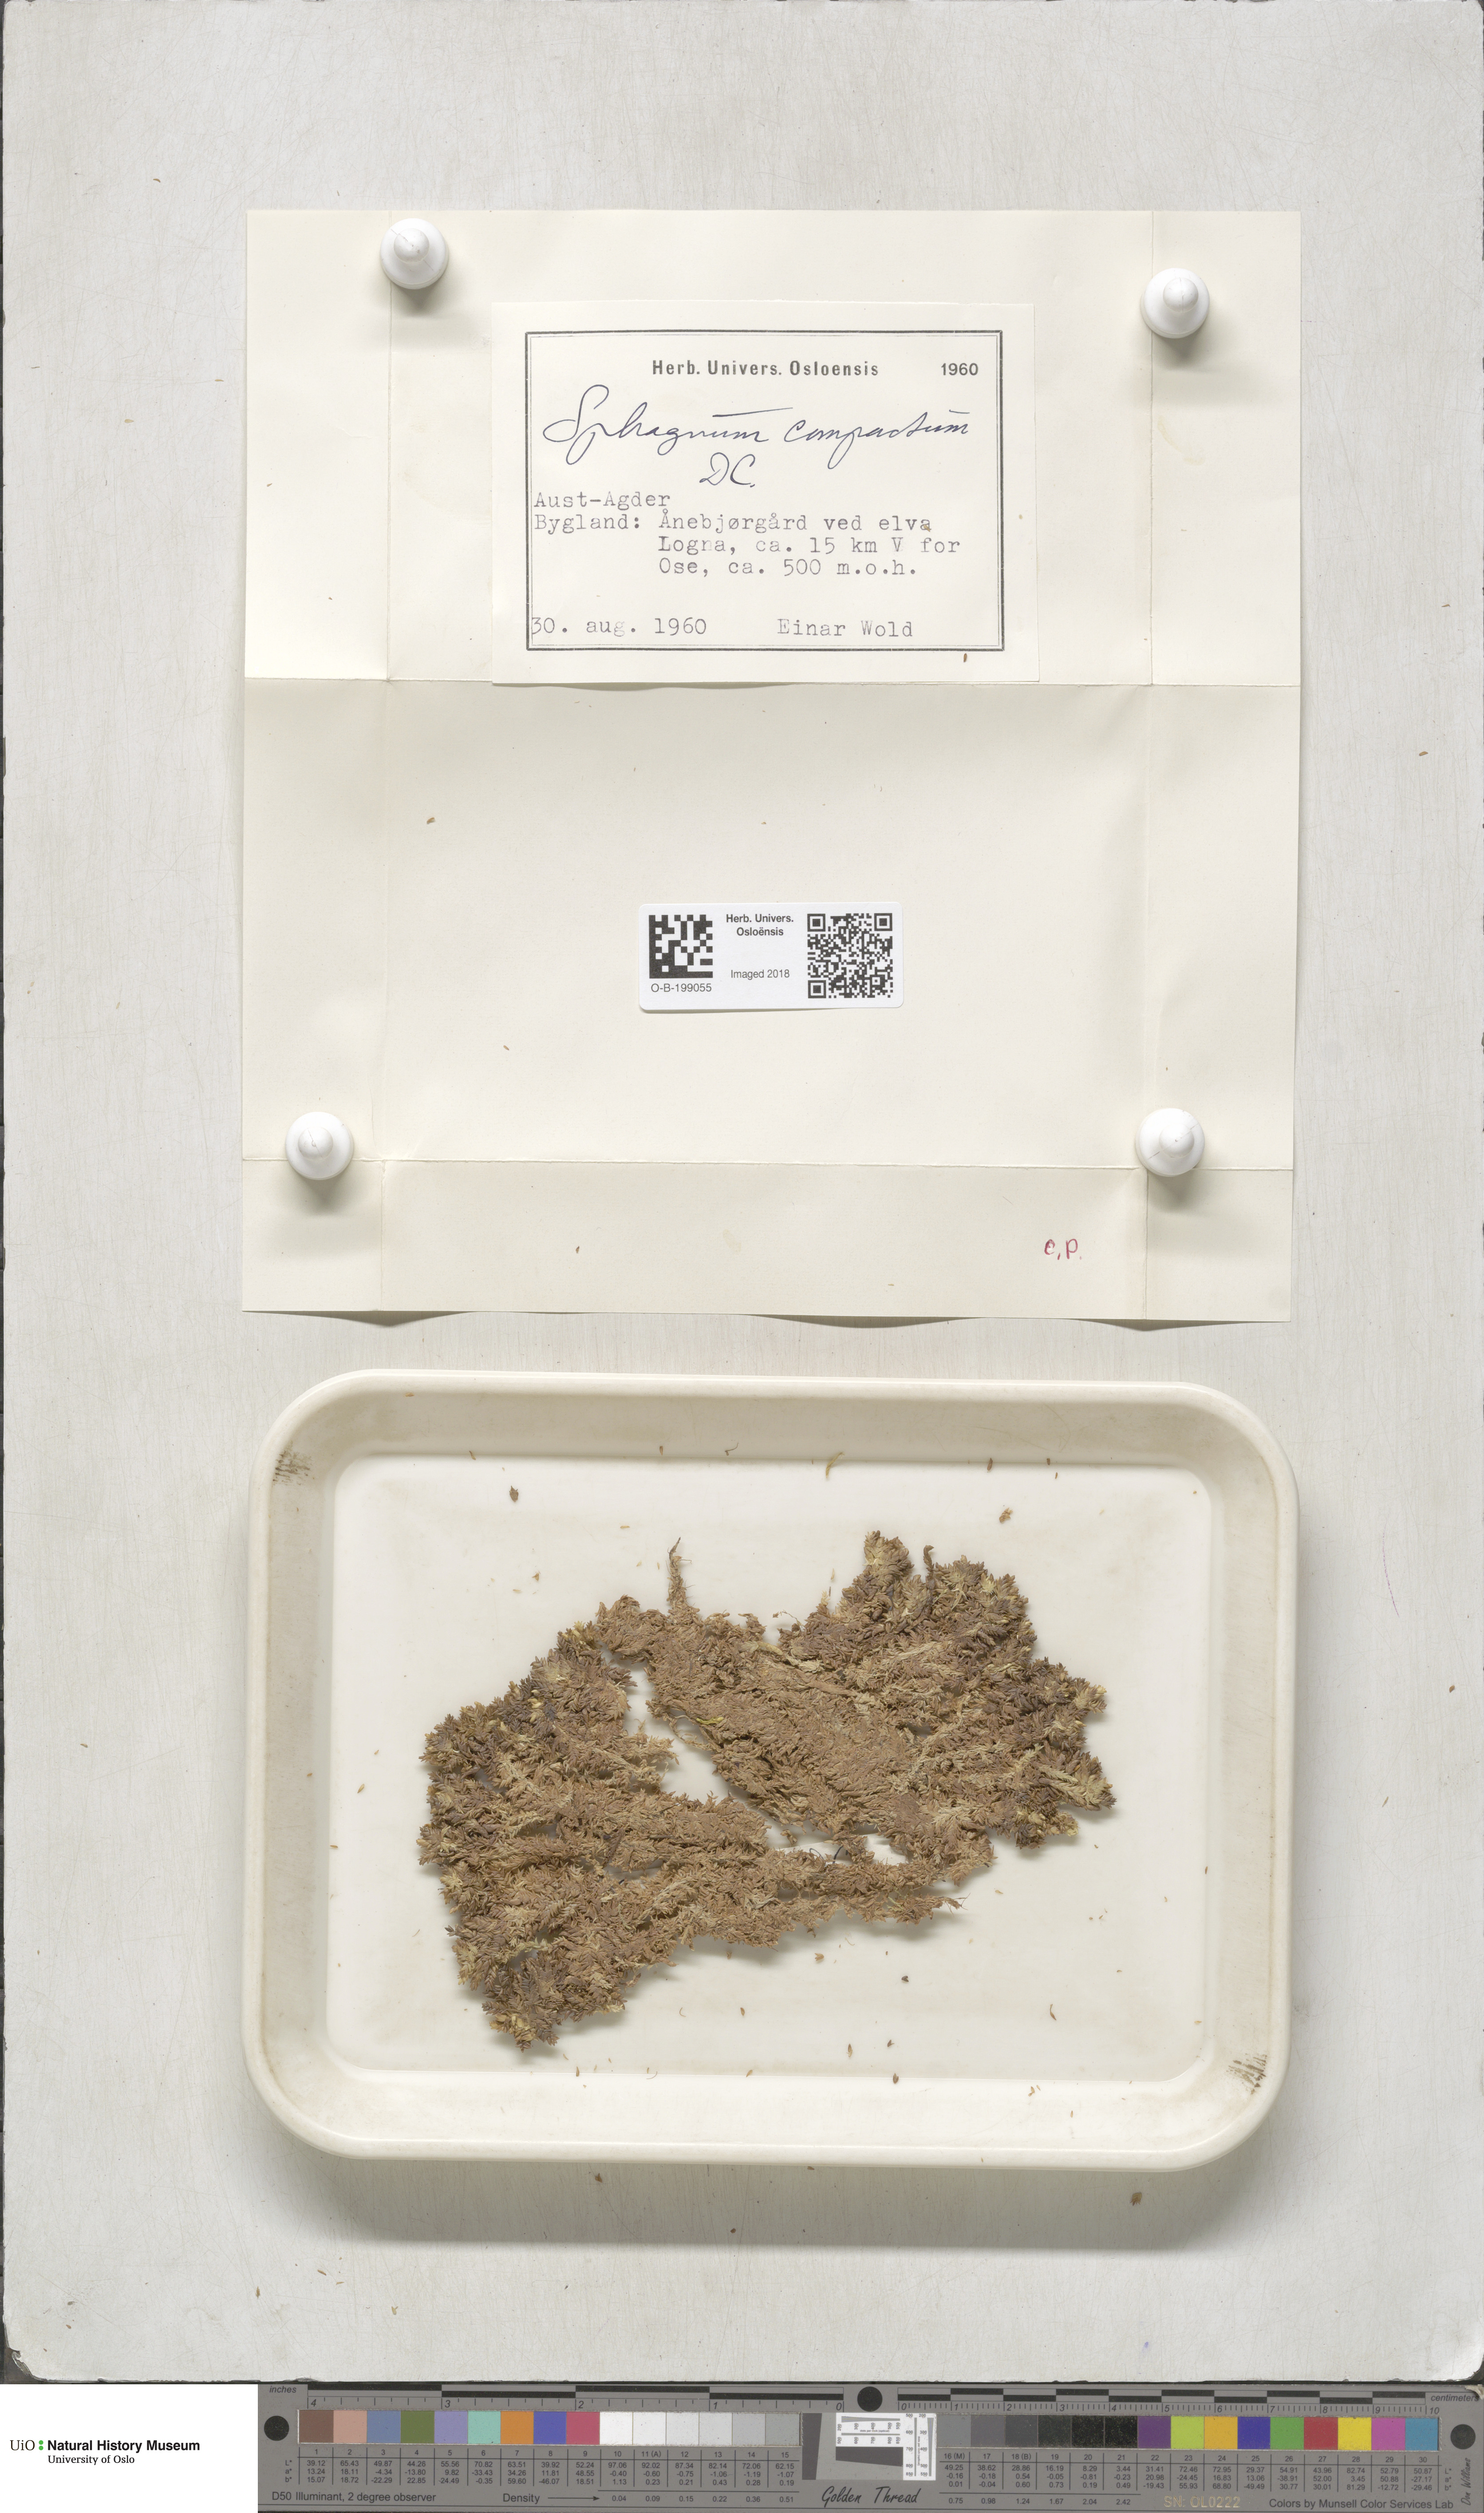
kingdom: Plantae
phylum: Bryophyta
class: Sphagnopsida
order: Sphagnales
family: Sphagnaceae
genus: Sphagnum
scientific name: Sphagnum compactum
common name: Compact peat moss
